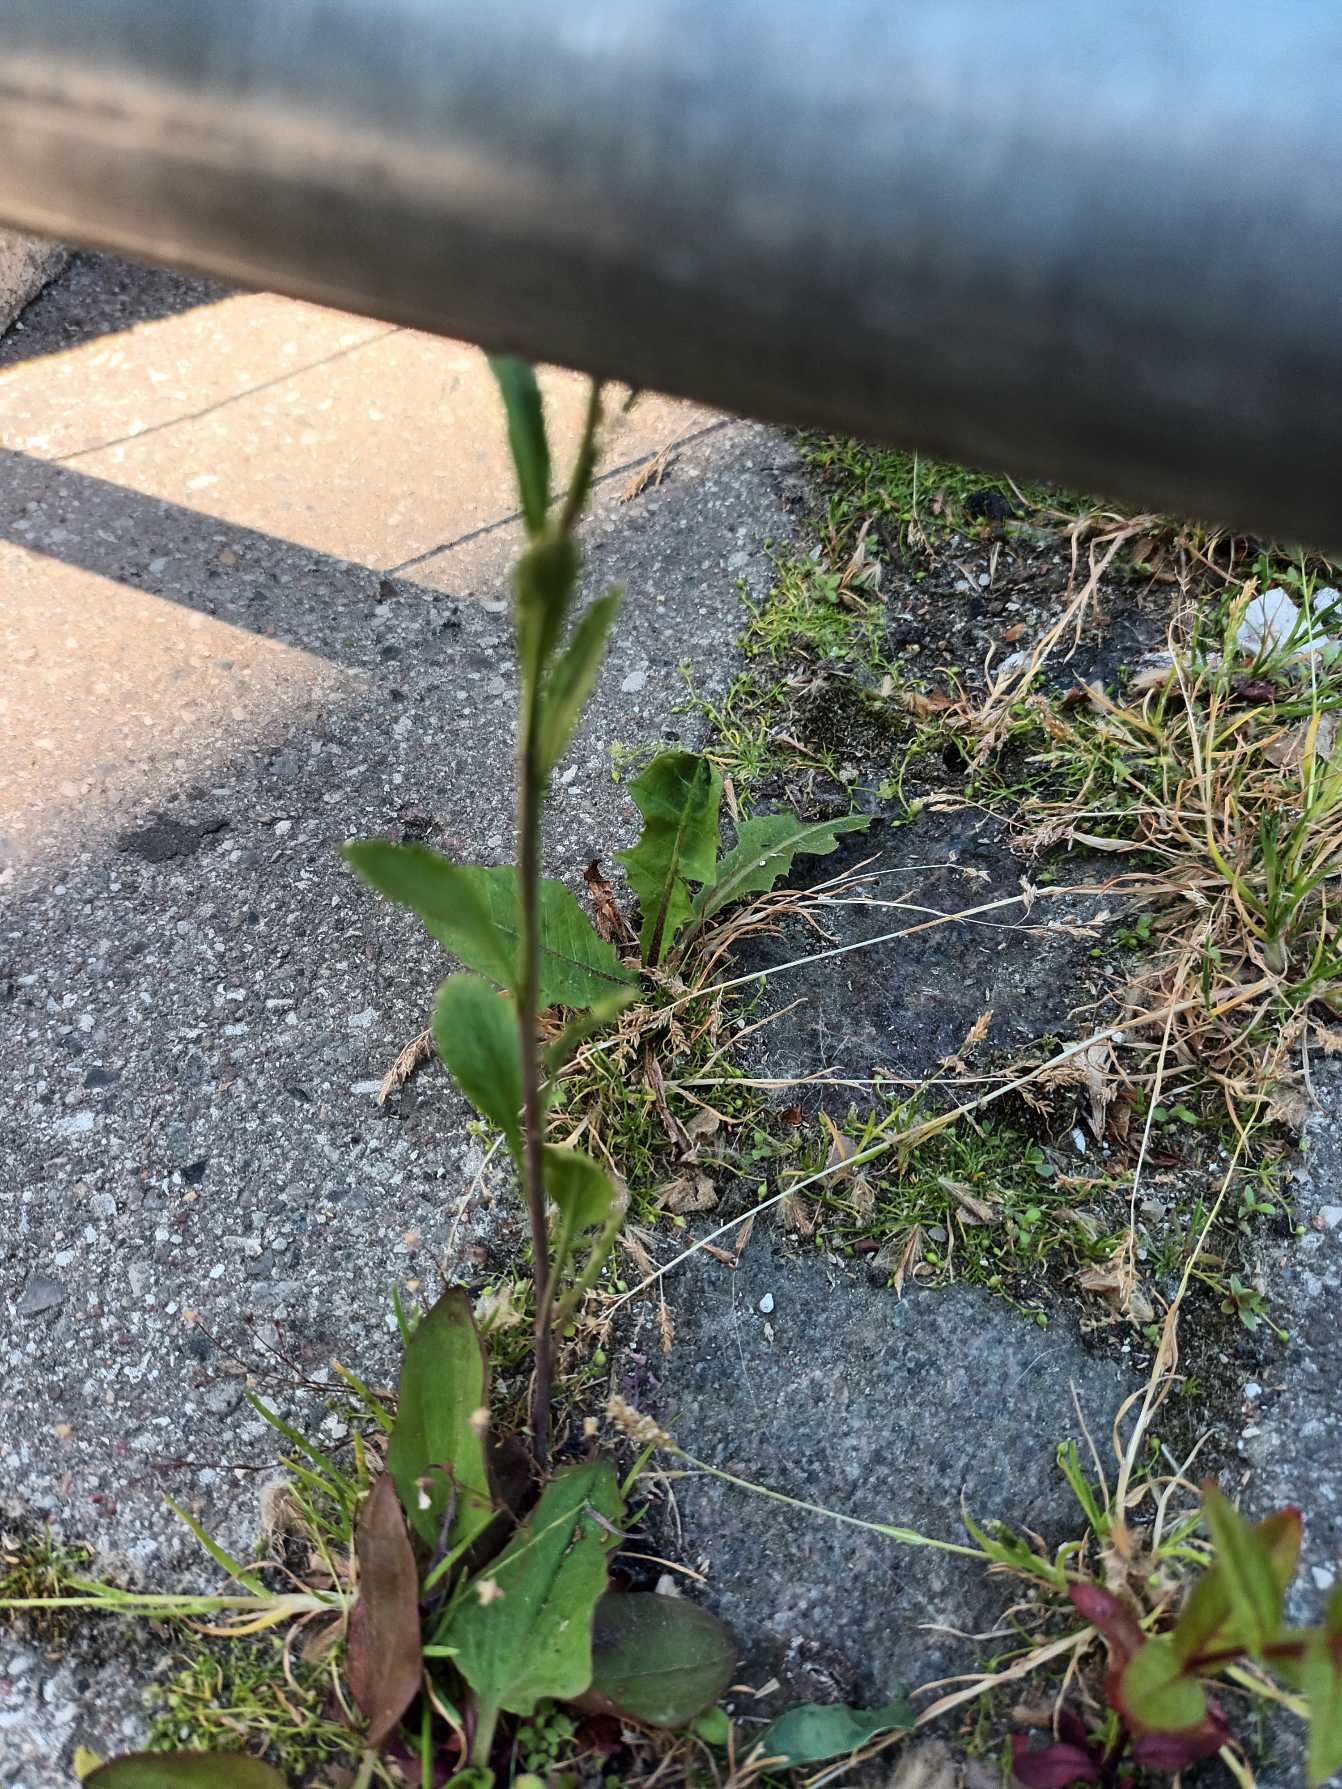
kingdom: Plantae
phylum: Tracheophyta
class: Magnoliopsida
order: Brassicales
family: Brassicaceae
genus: Lepidium
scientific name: Lepidium densiflorum
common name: Vingefrøet karse
